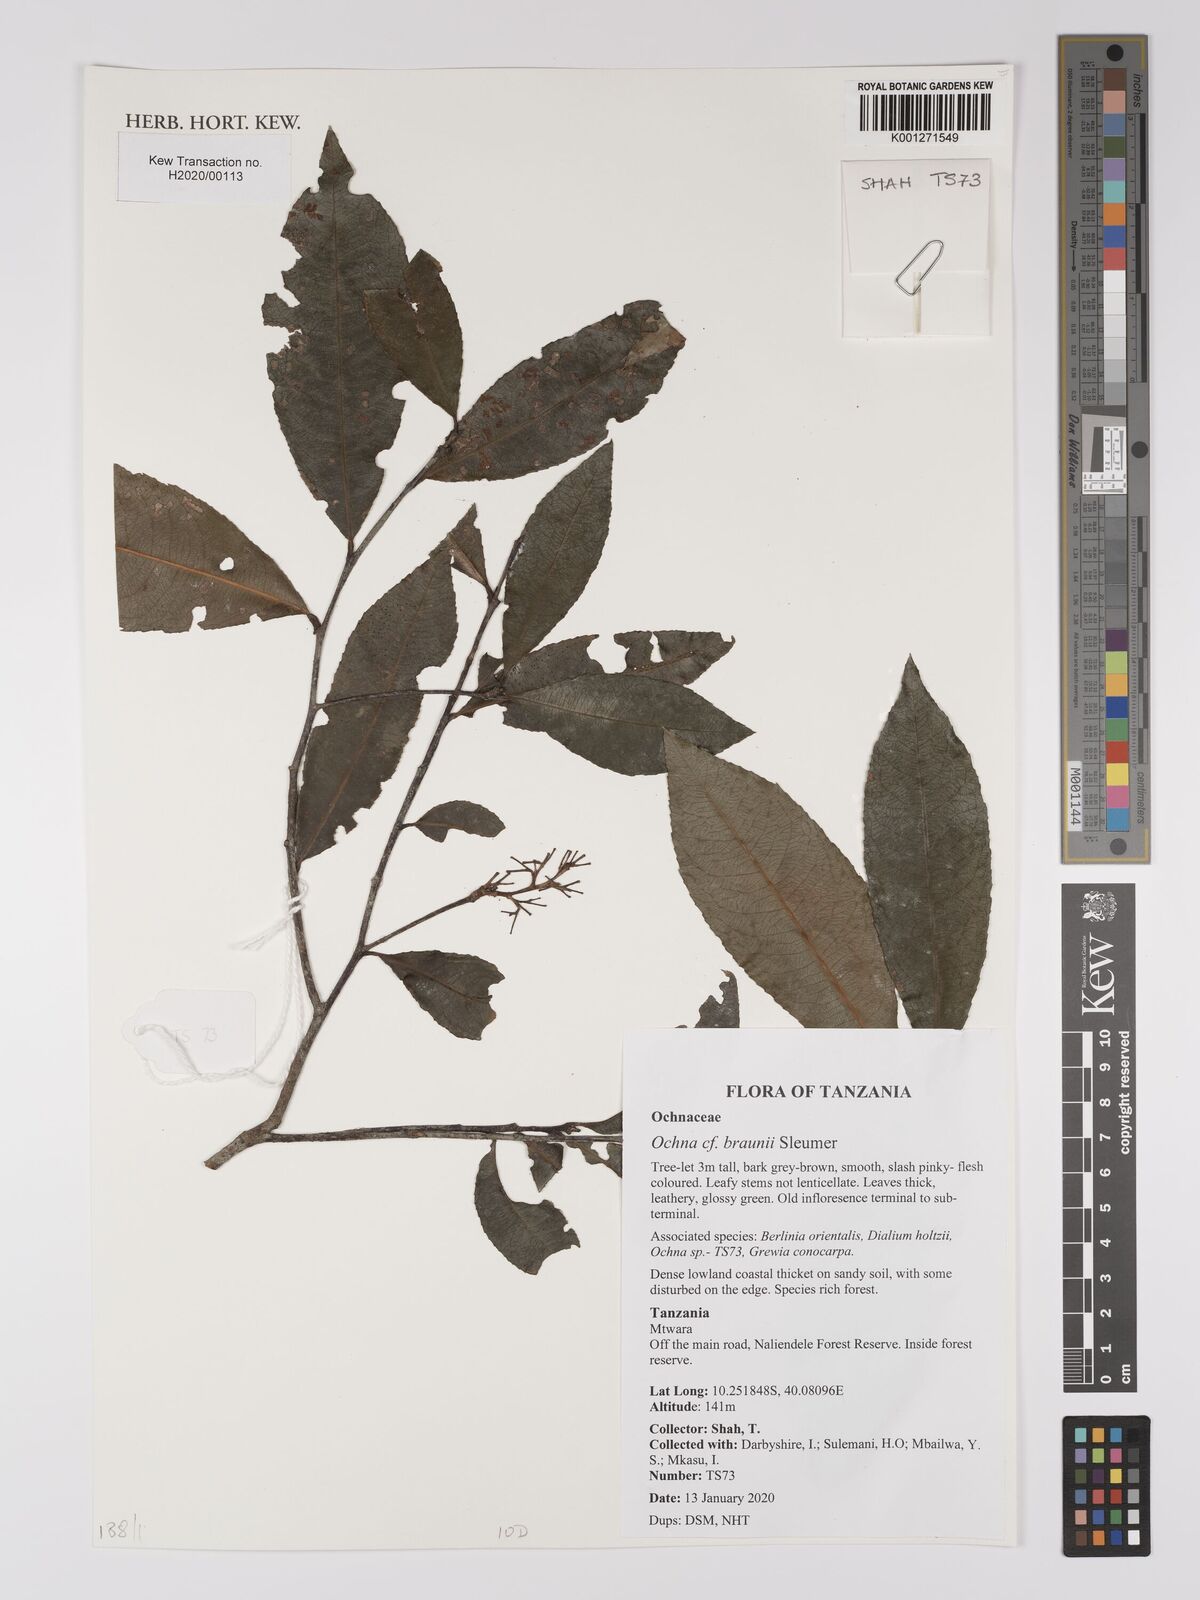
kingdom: Plantae
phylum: Tracheophyta
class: Magnoliopsida
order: Malpighiales
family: Ochnaceae
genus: Ochna
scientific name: Ochna braunii
